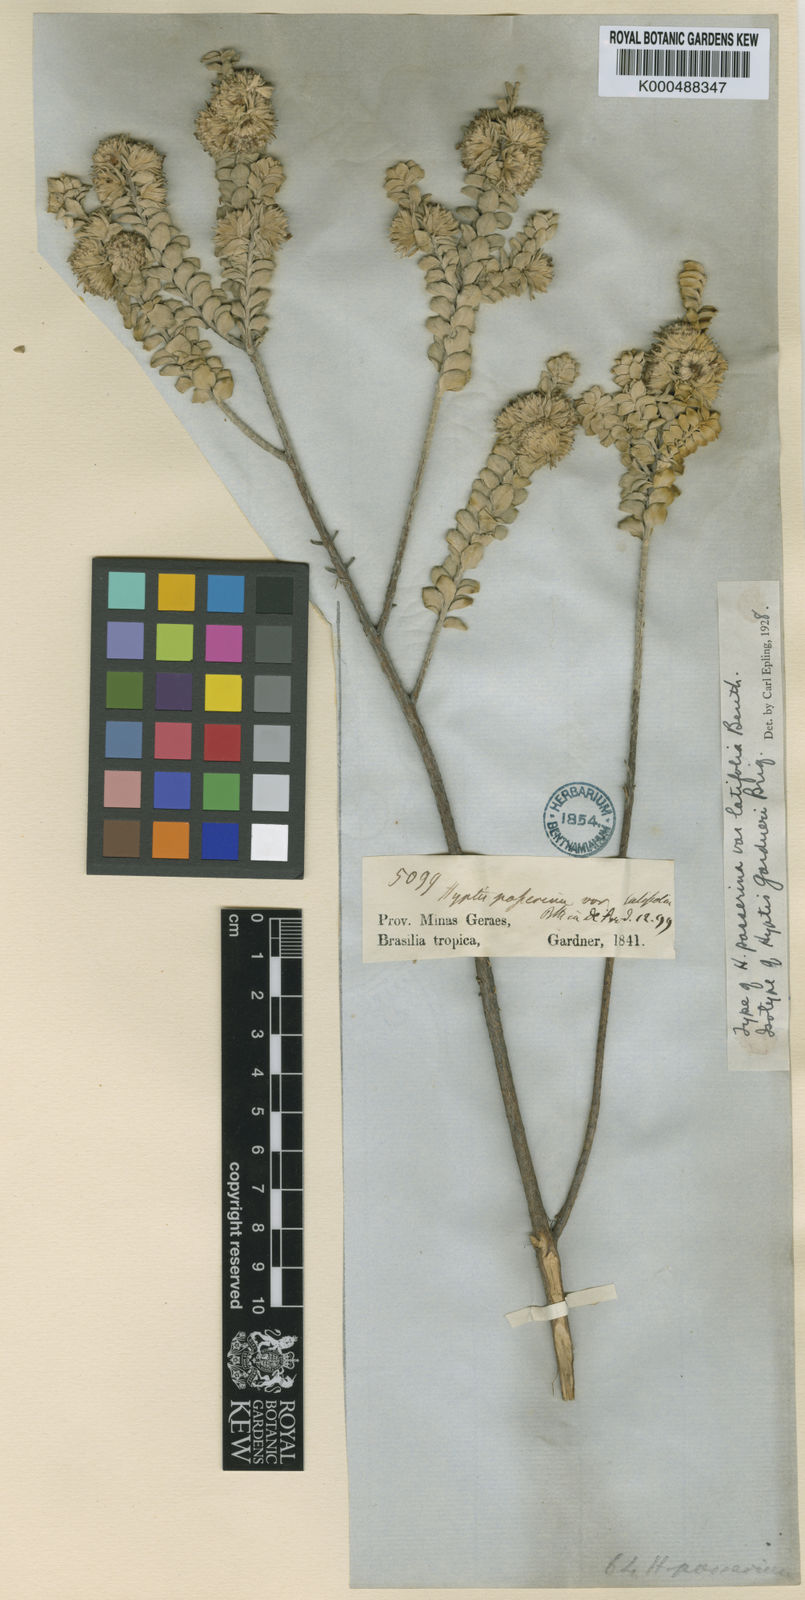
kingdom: Plantae
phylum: Tracheophyta
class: Magnoliopsida
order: Lamiales
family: Lamiaceae
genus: Hyptis
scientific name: Hyptis gardneri
